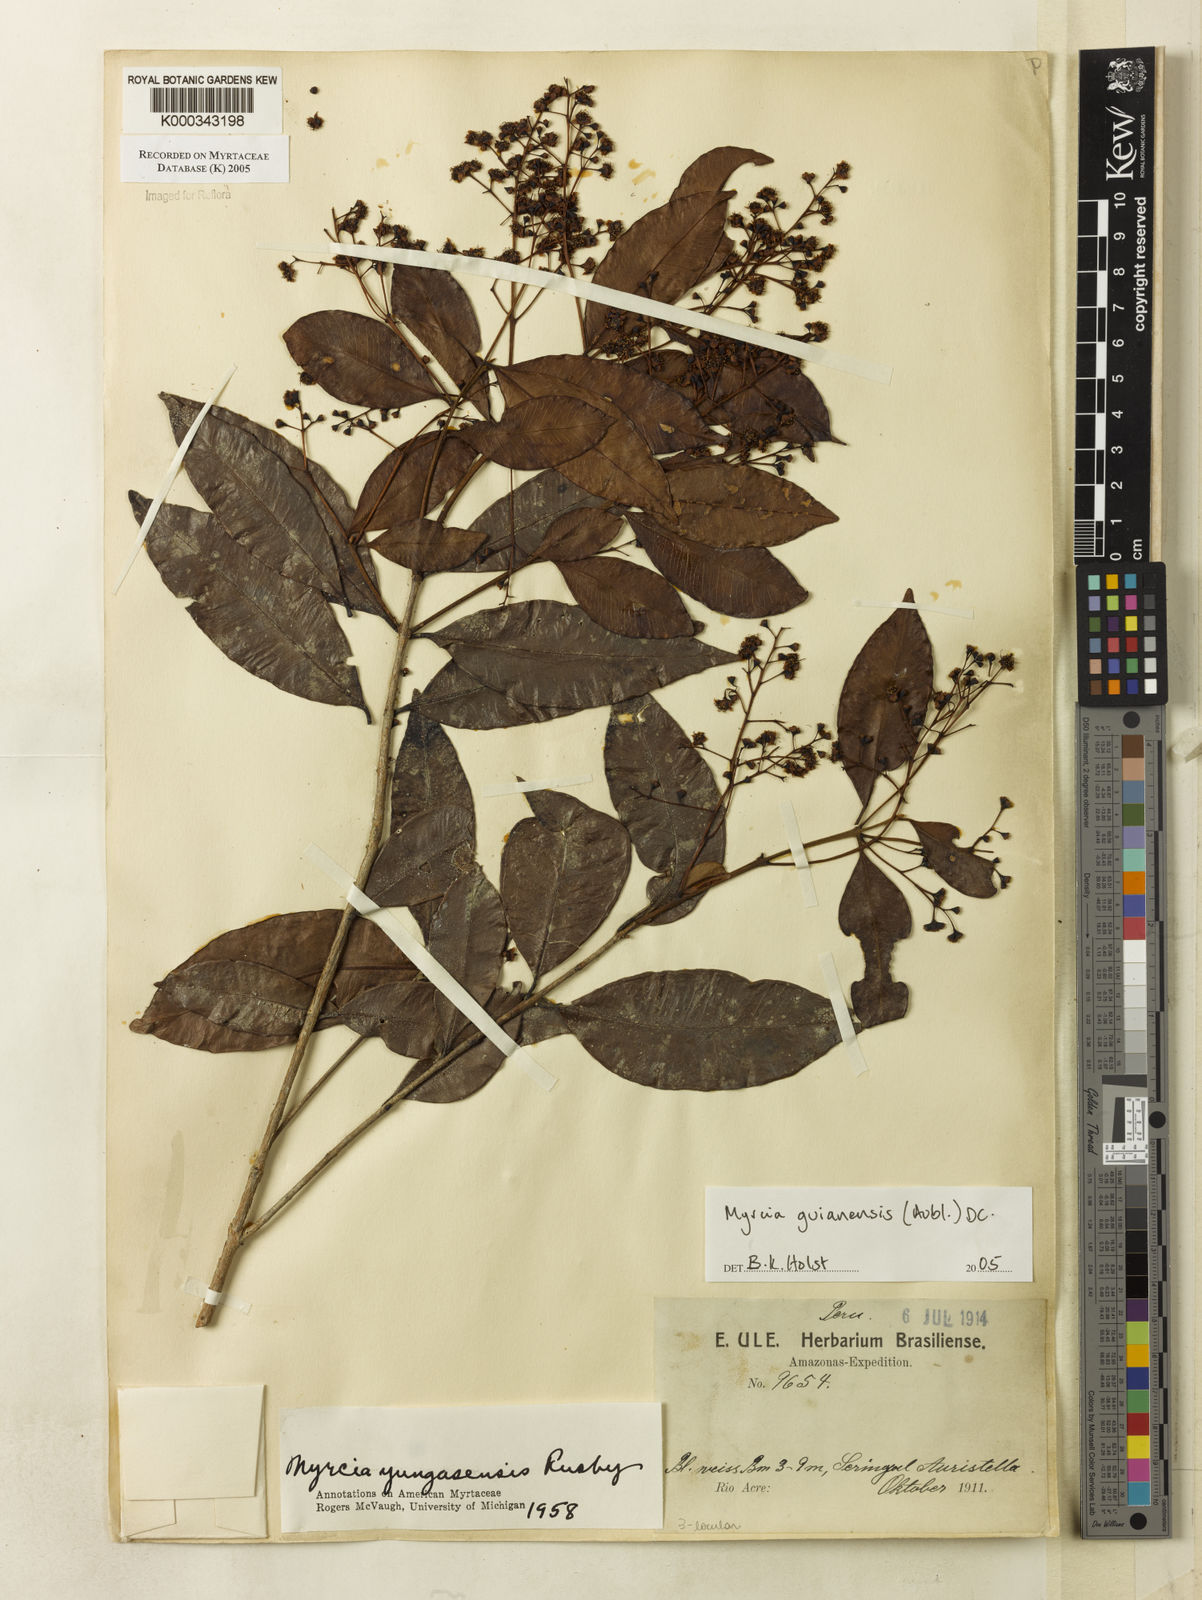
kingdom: Plantae
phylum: Tracheophyta
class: Magnoliopsida
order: Myrtales
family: Myrtaceae
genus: Myrcia
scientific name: Myrcia guianensis
